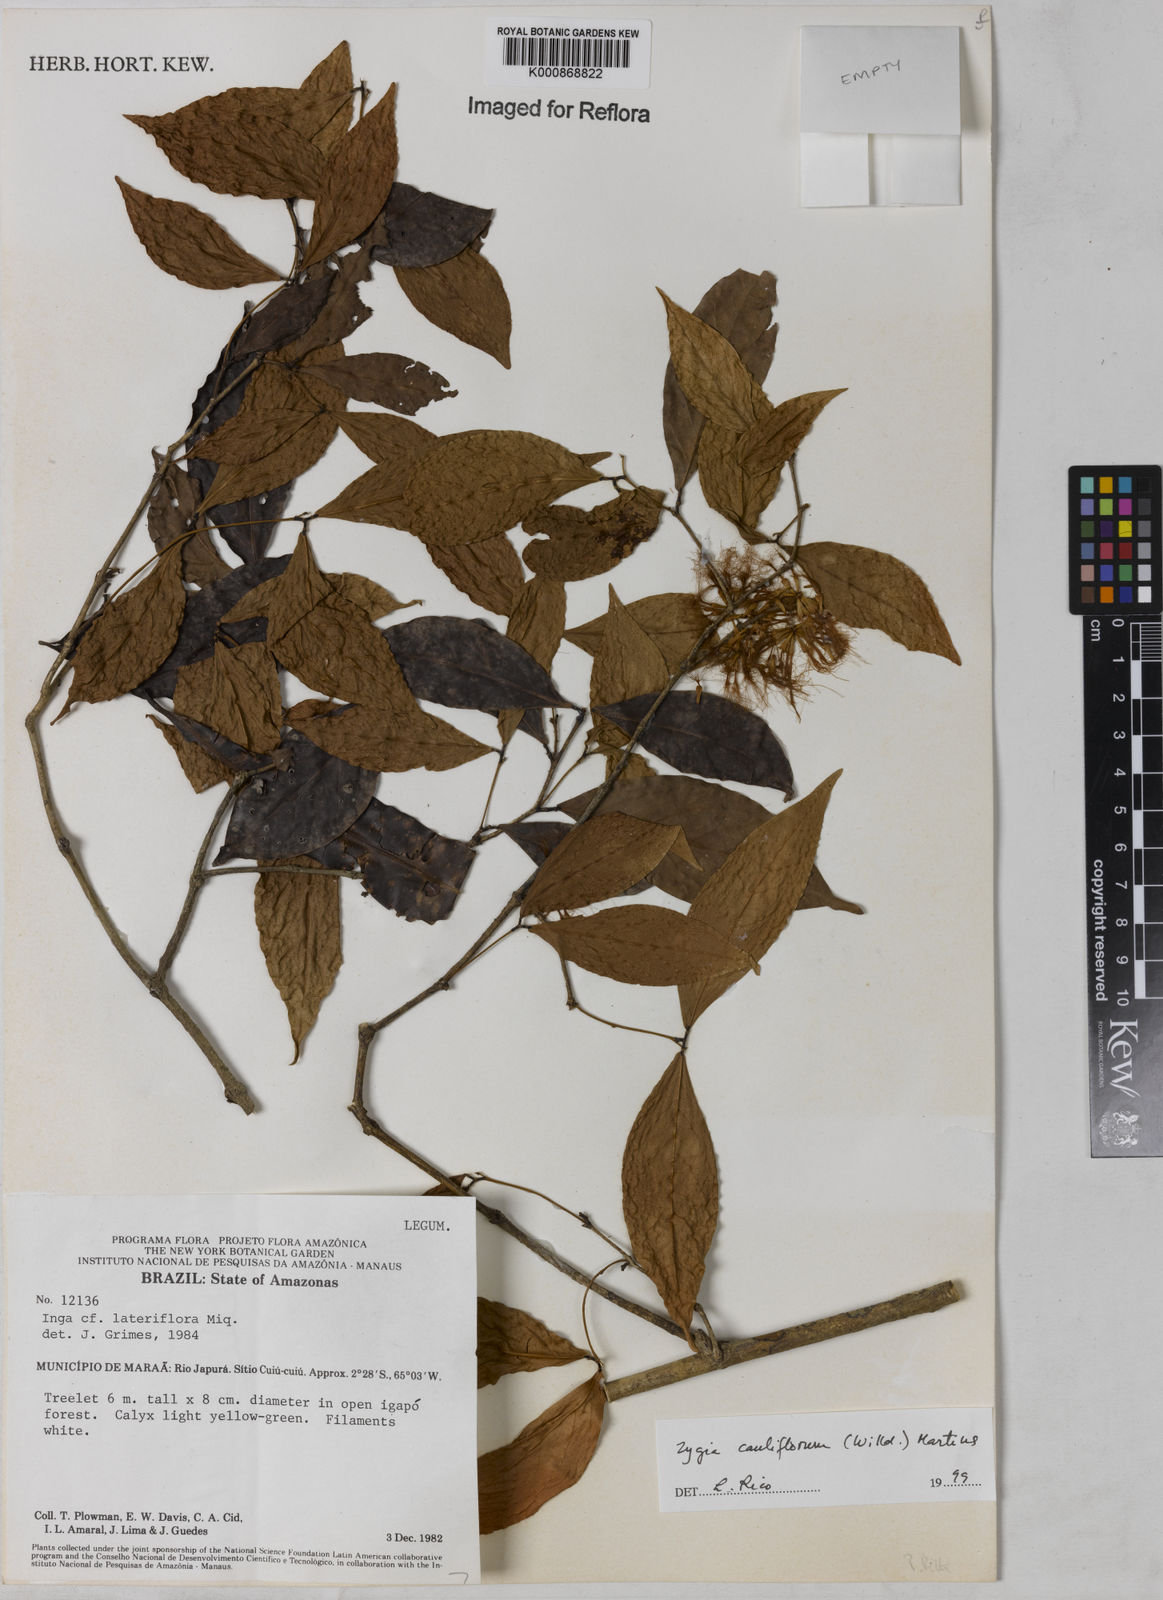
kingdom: Plantae
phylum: Tracheophyta
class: Magnoliopsida
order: Fabales
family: Fabaceae
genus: Zygia
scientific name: Zygia
